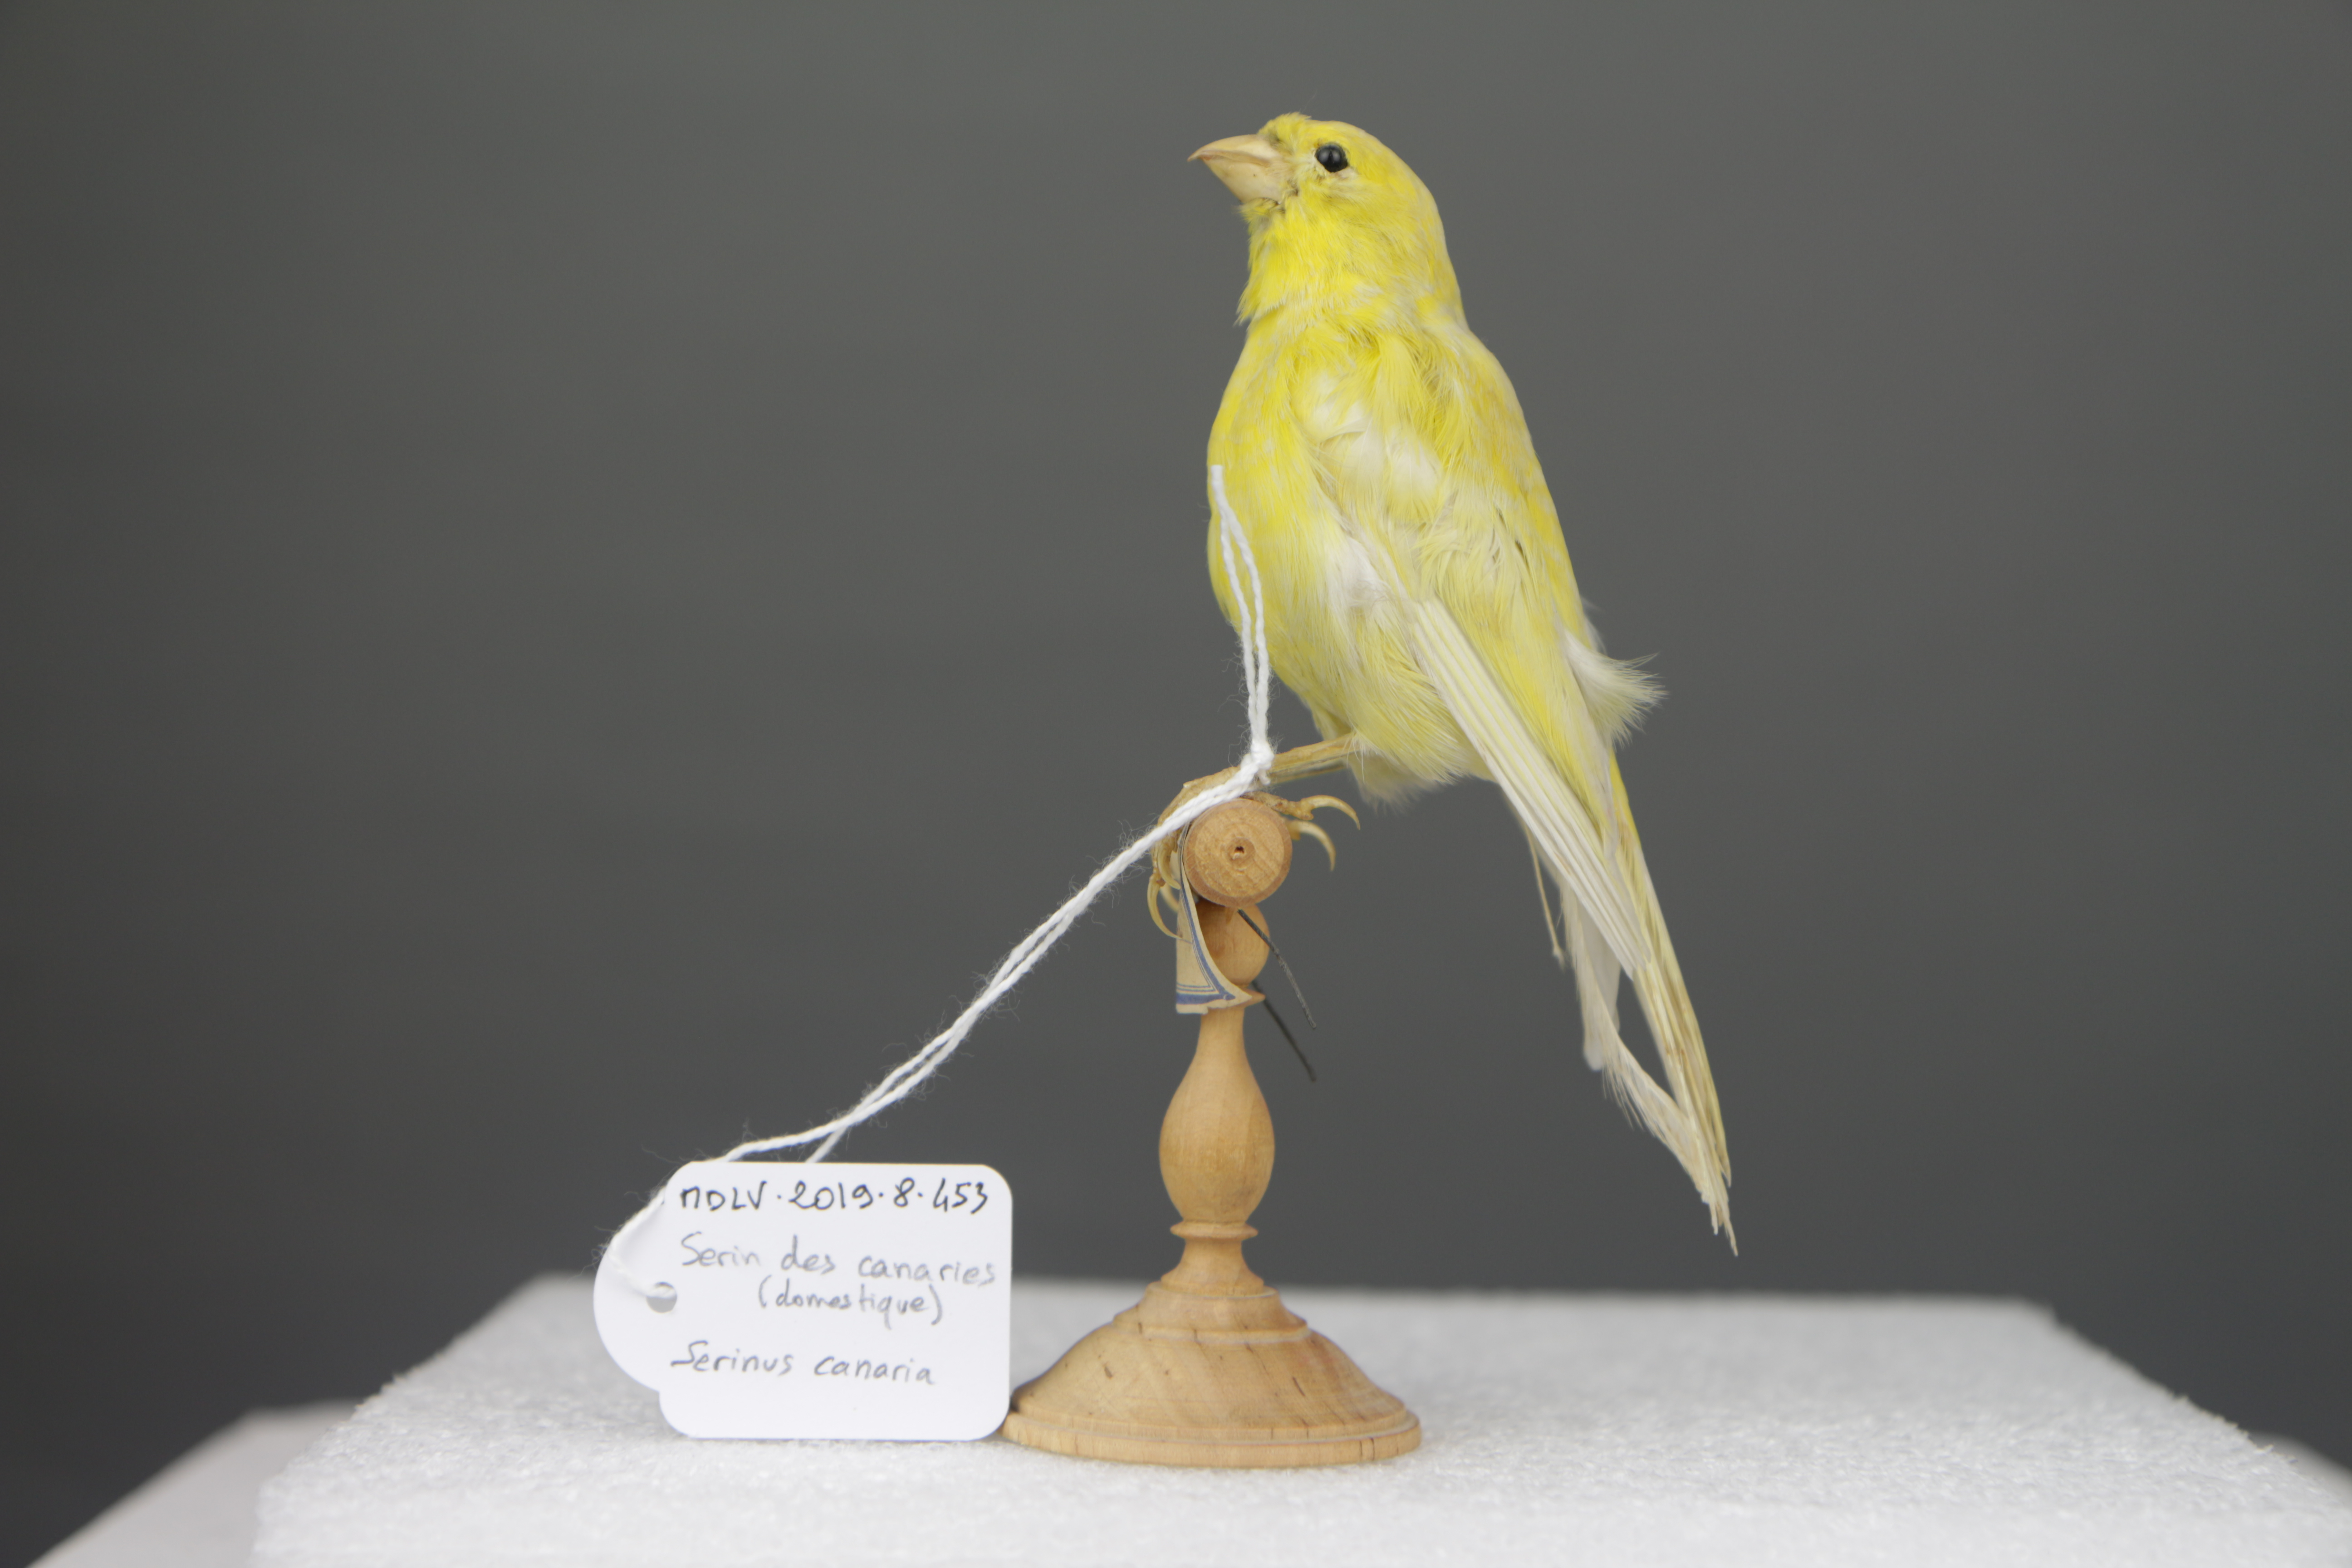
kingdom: Animalia
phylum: Chordata
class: Aves
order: Passeriformes
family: Fringillidae
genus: Serinus
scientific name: Serinus canaria
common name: Atlantic canary
